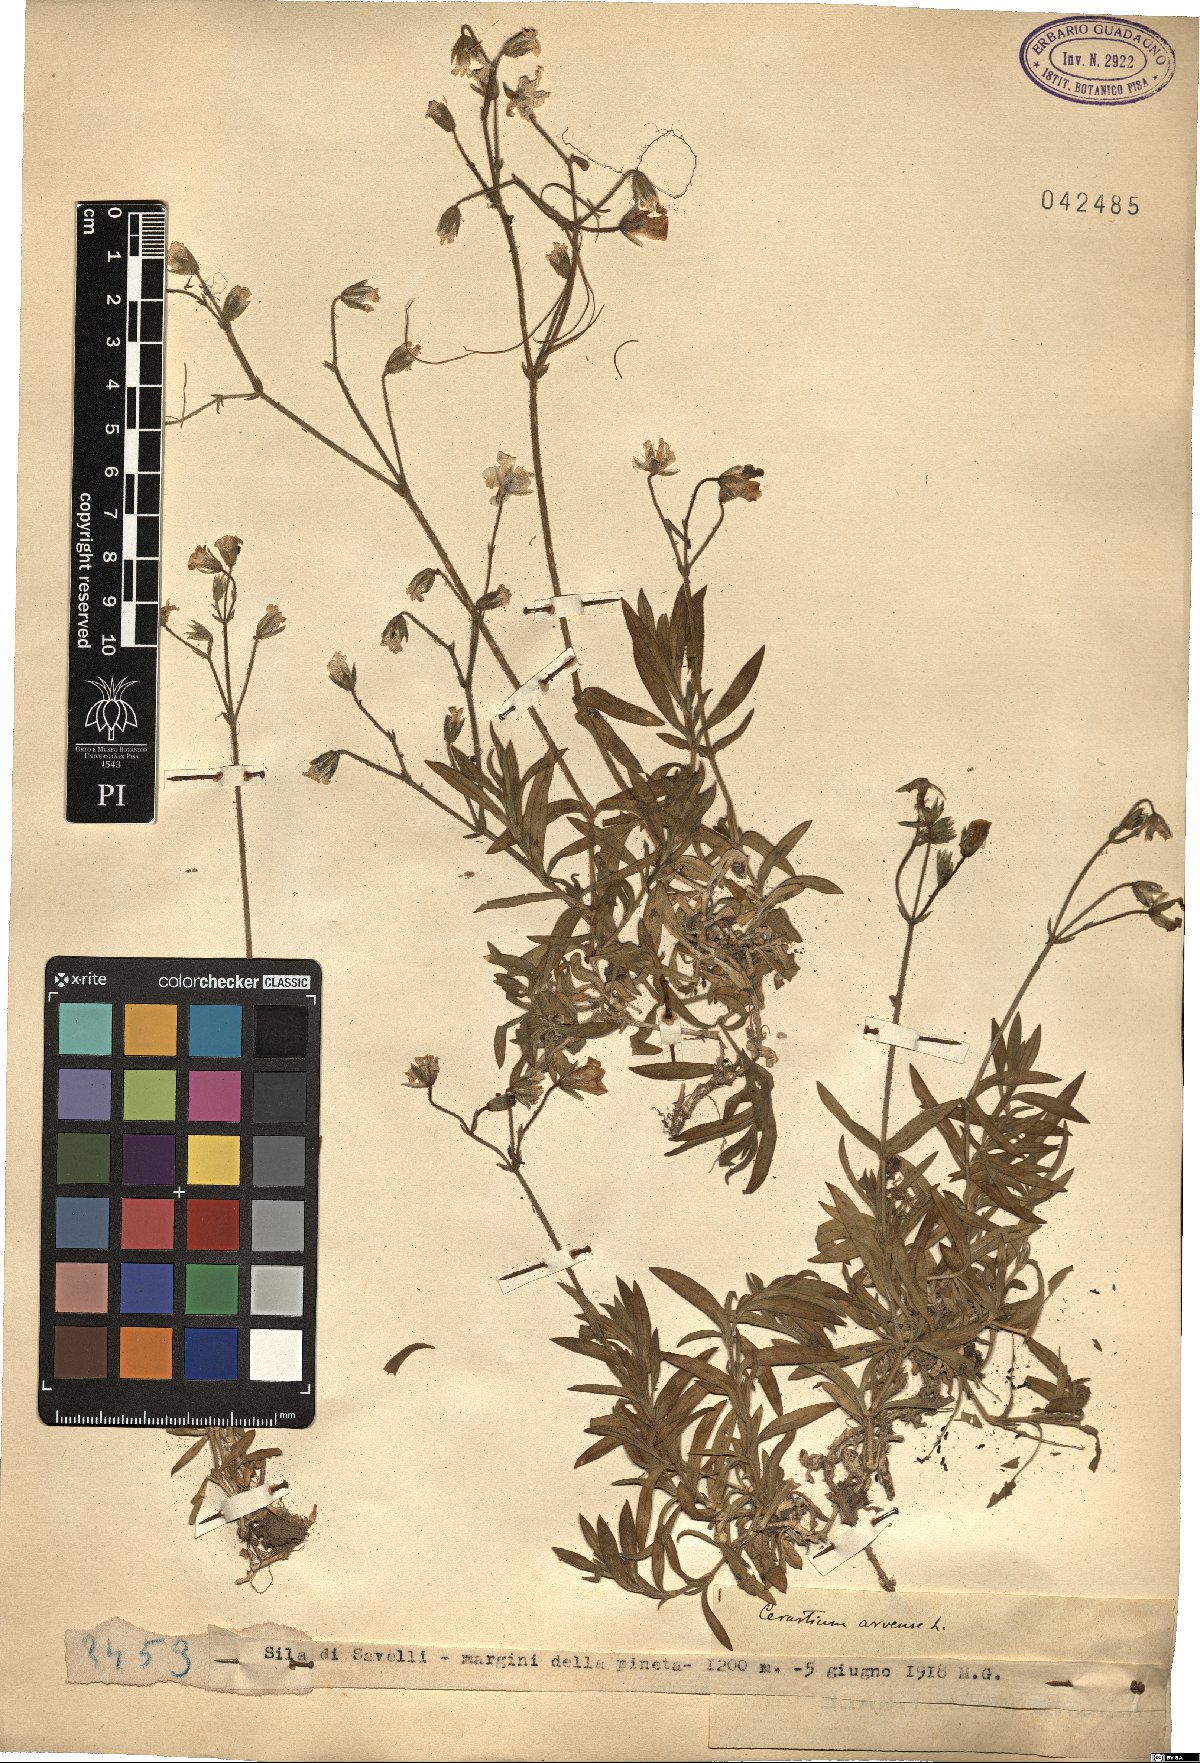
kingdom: Plantae
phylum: Tracheophyta
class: Magnoliopsida
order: Caryophyllales
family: Caryophyllaceae
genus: Cerastium
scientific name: Cerastium arvense
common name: Field mouse-ear
